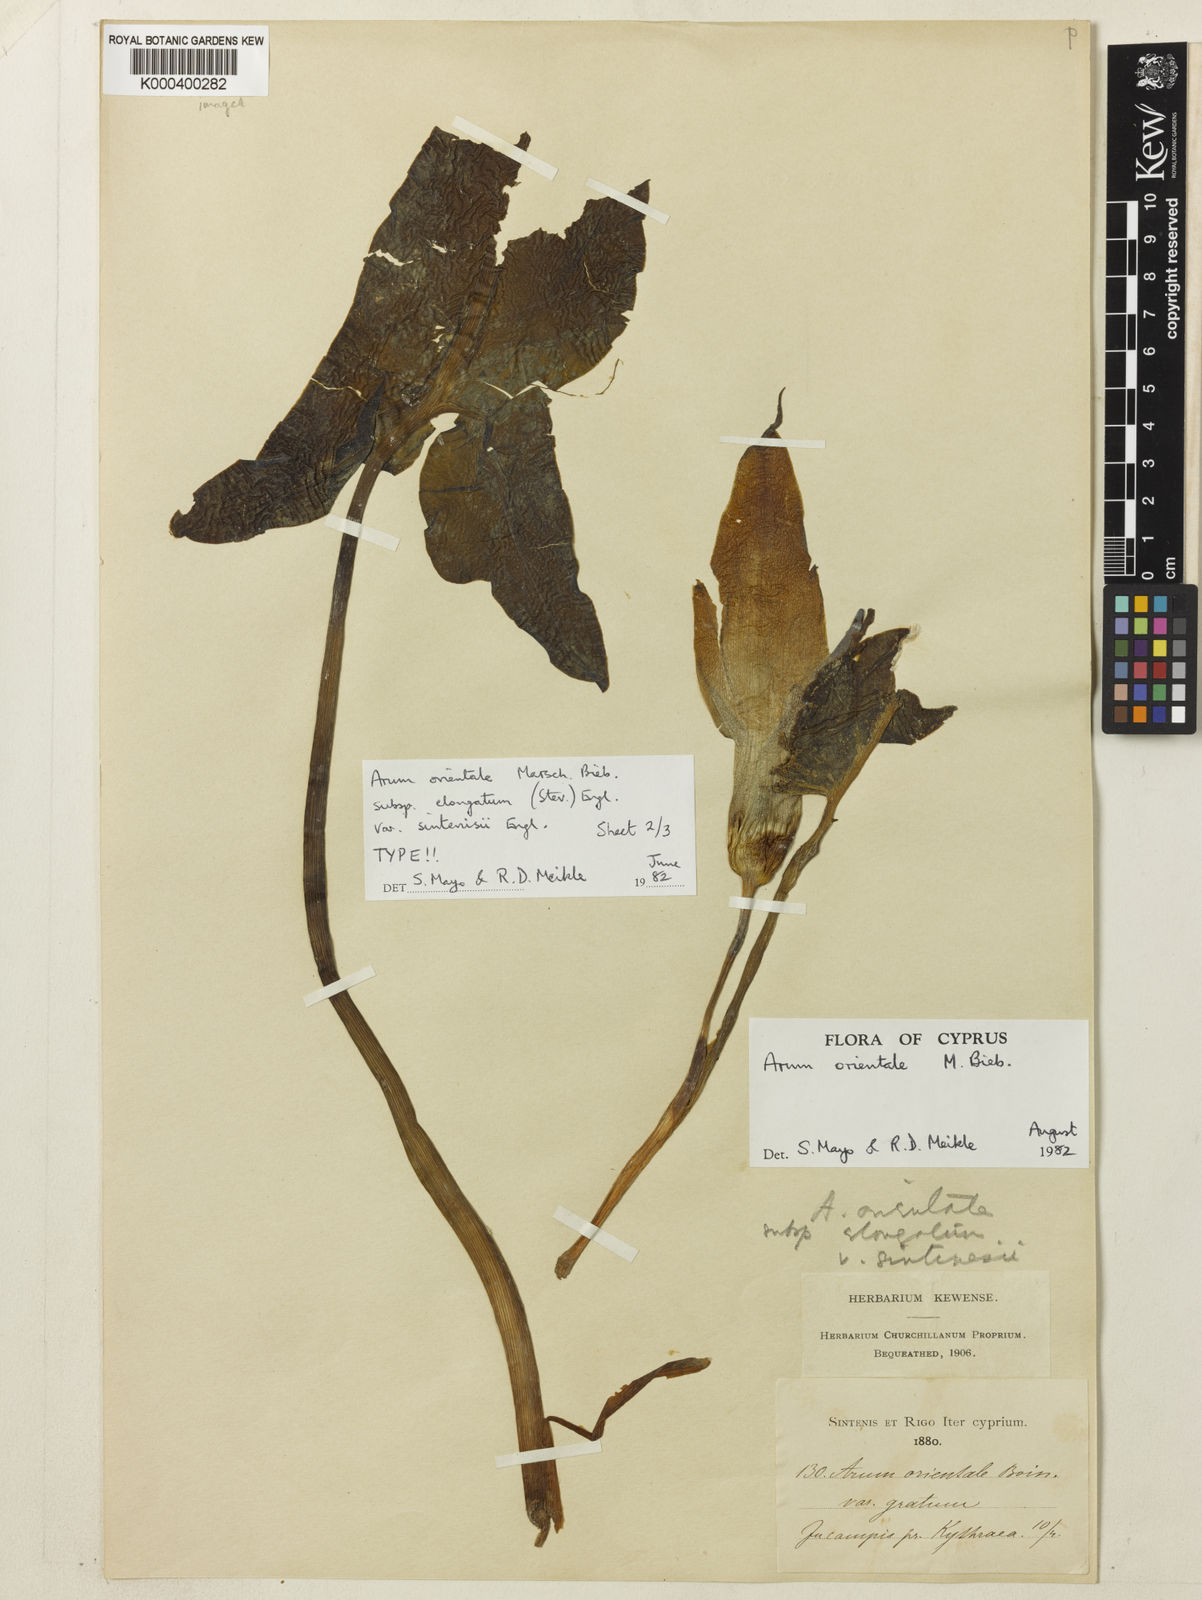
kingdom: Plantae
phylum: Tracheophyta
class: Liliopsida
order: Alismatales
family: Araceae
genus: Arum
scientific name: Arum sintenisii
